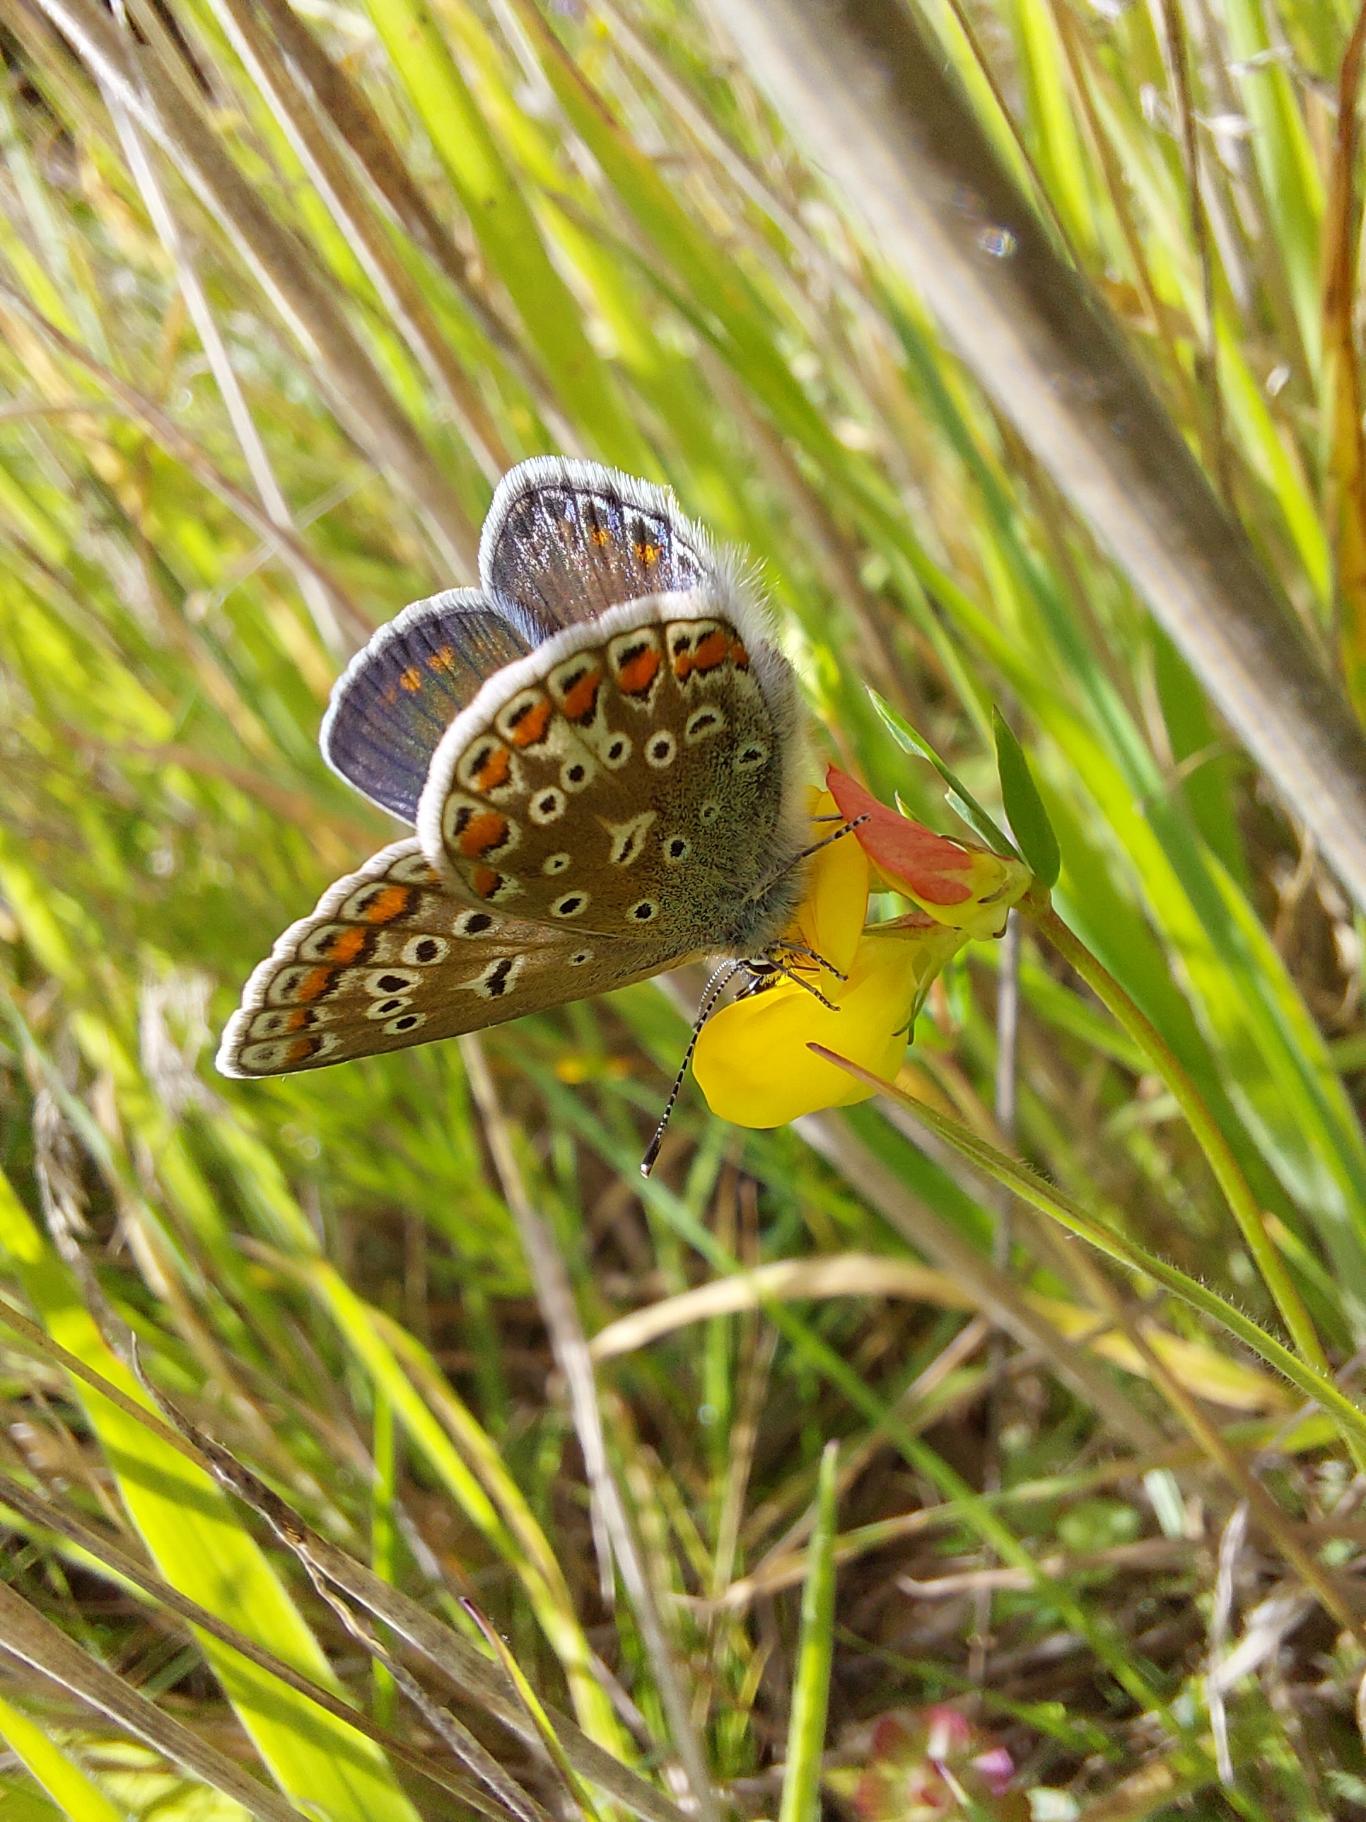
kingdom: Animalia
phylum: Arthropoda
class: Insecta
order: Lepidoptera
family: Lycaenidae
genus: Polyommatus
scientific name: Polyommatus icarus
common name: Almindelig blåfugl
